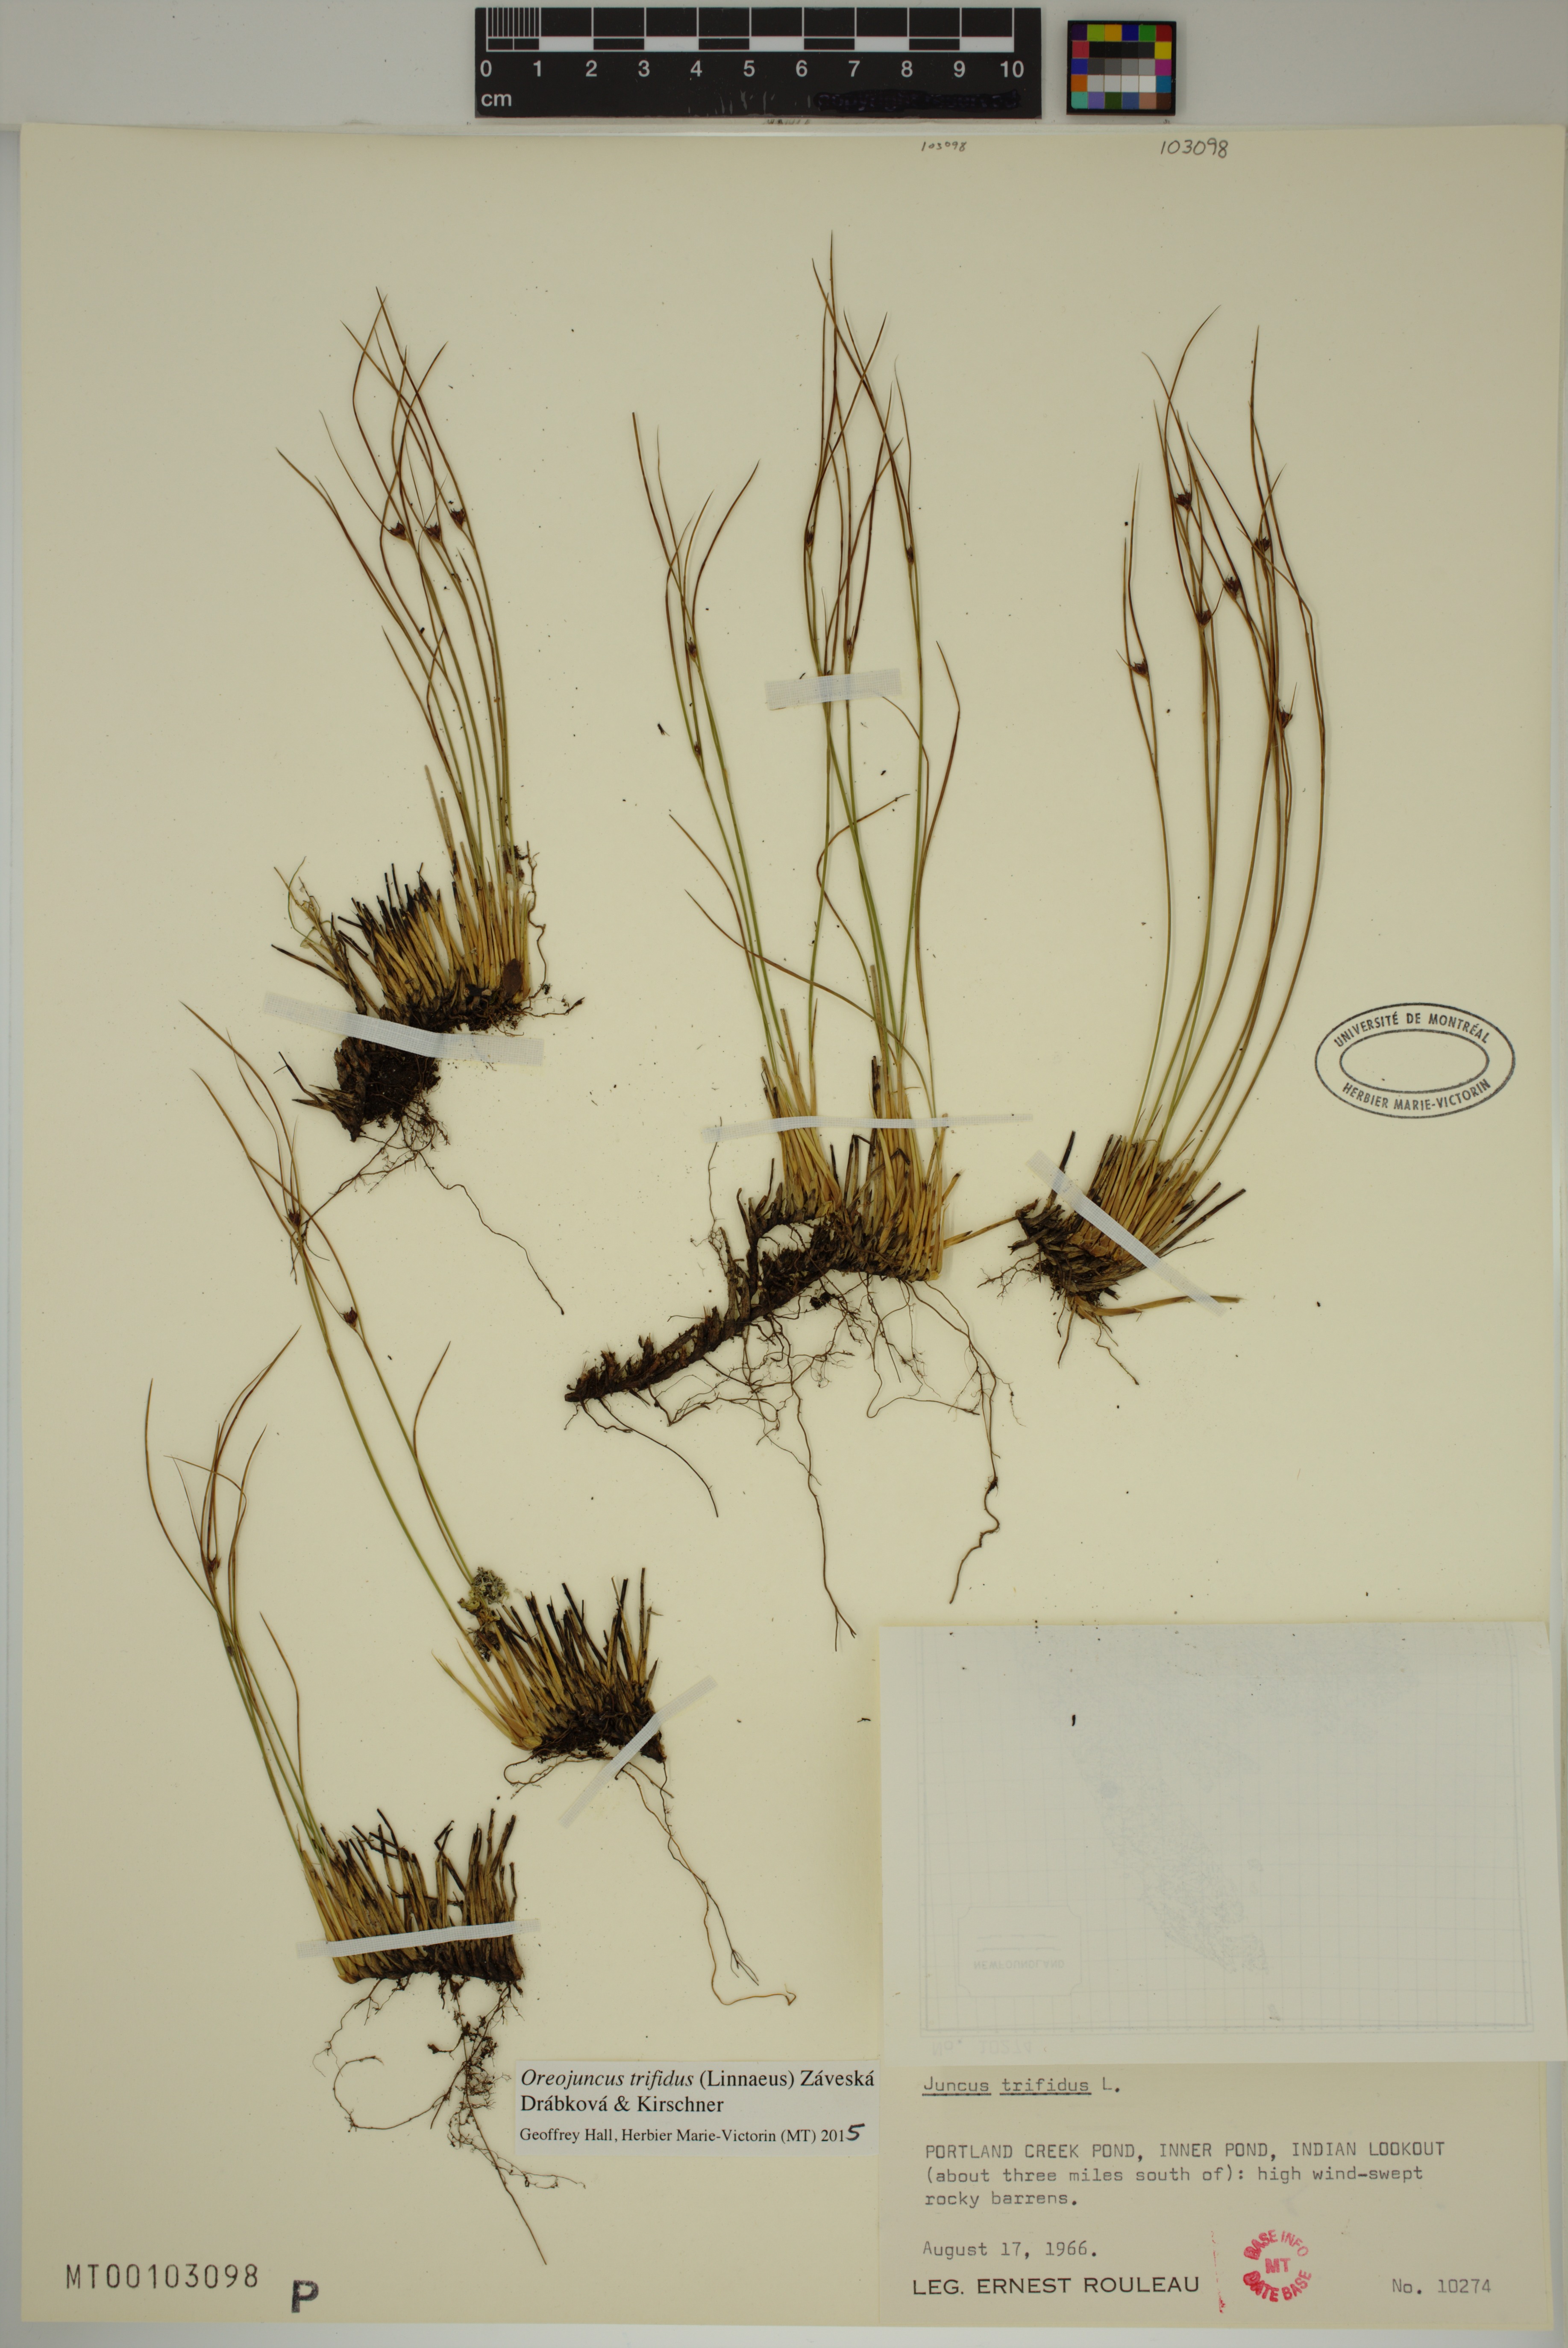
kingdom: Plantae
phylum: Tracheophyta
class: Liliopsida
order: Poales
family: Juncaceae
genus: Oreojuncus
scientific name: Oreojuncus trifidus
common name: Highland rush
